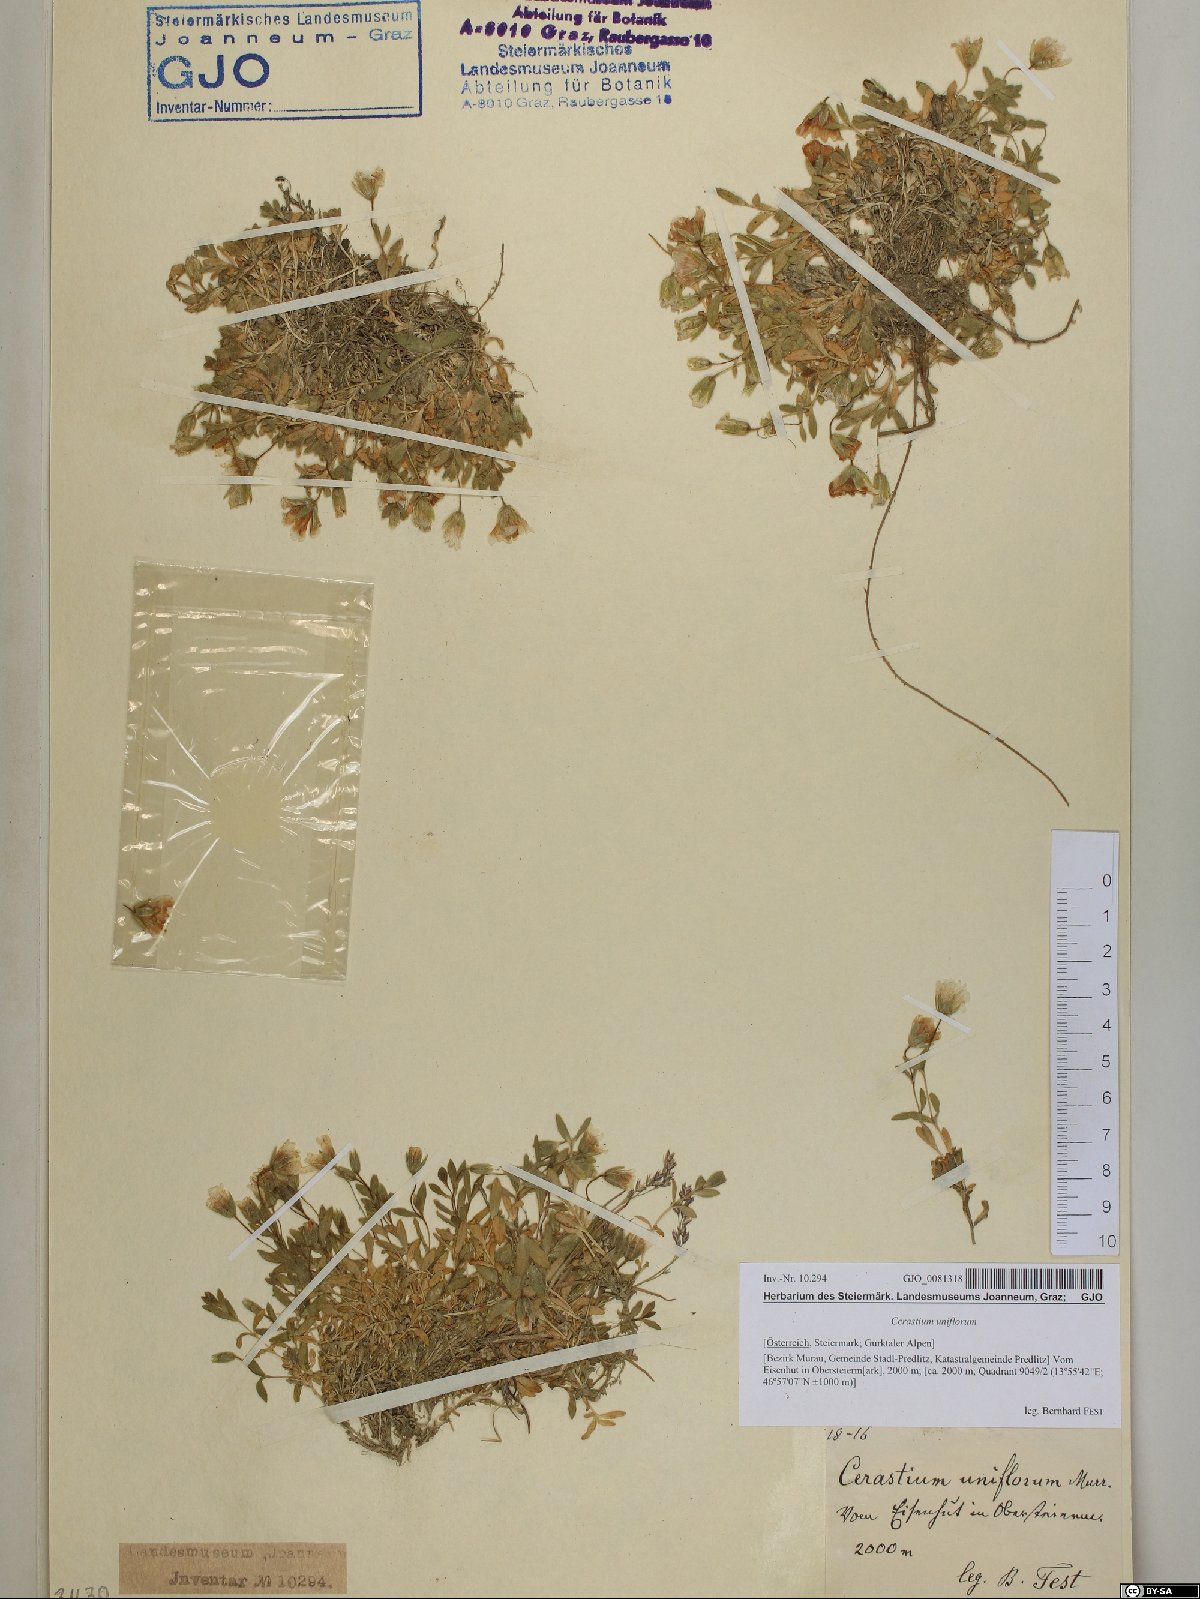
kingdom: Plantae
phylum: Tracheophyta
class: Magnoliopsida
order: Caryophyllales
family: Caryophyllaceae
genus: Cerastium
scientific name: Cerastium uniflorum
